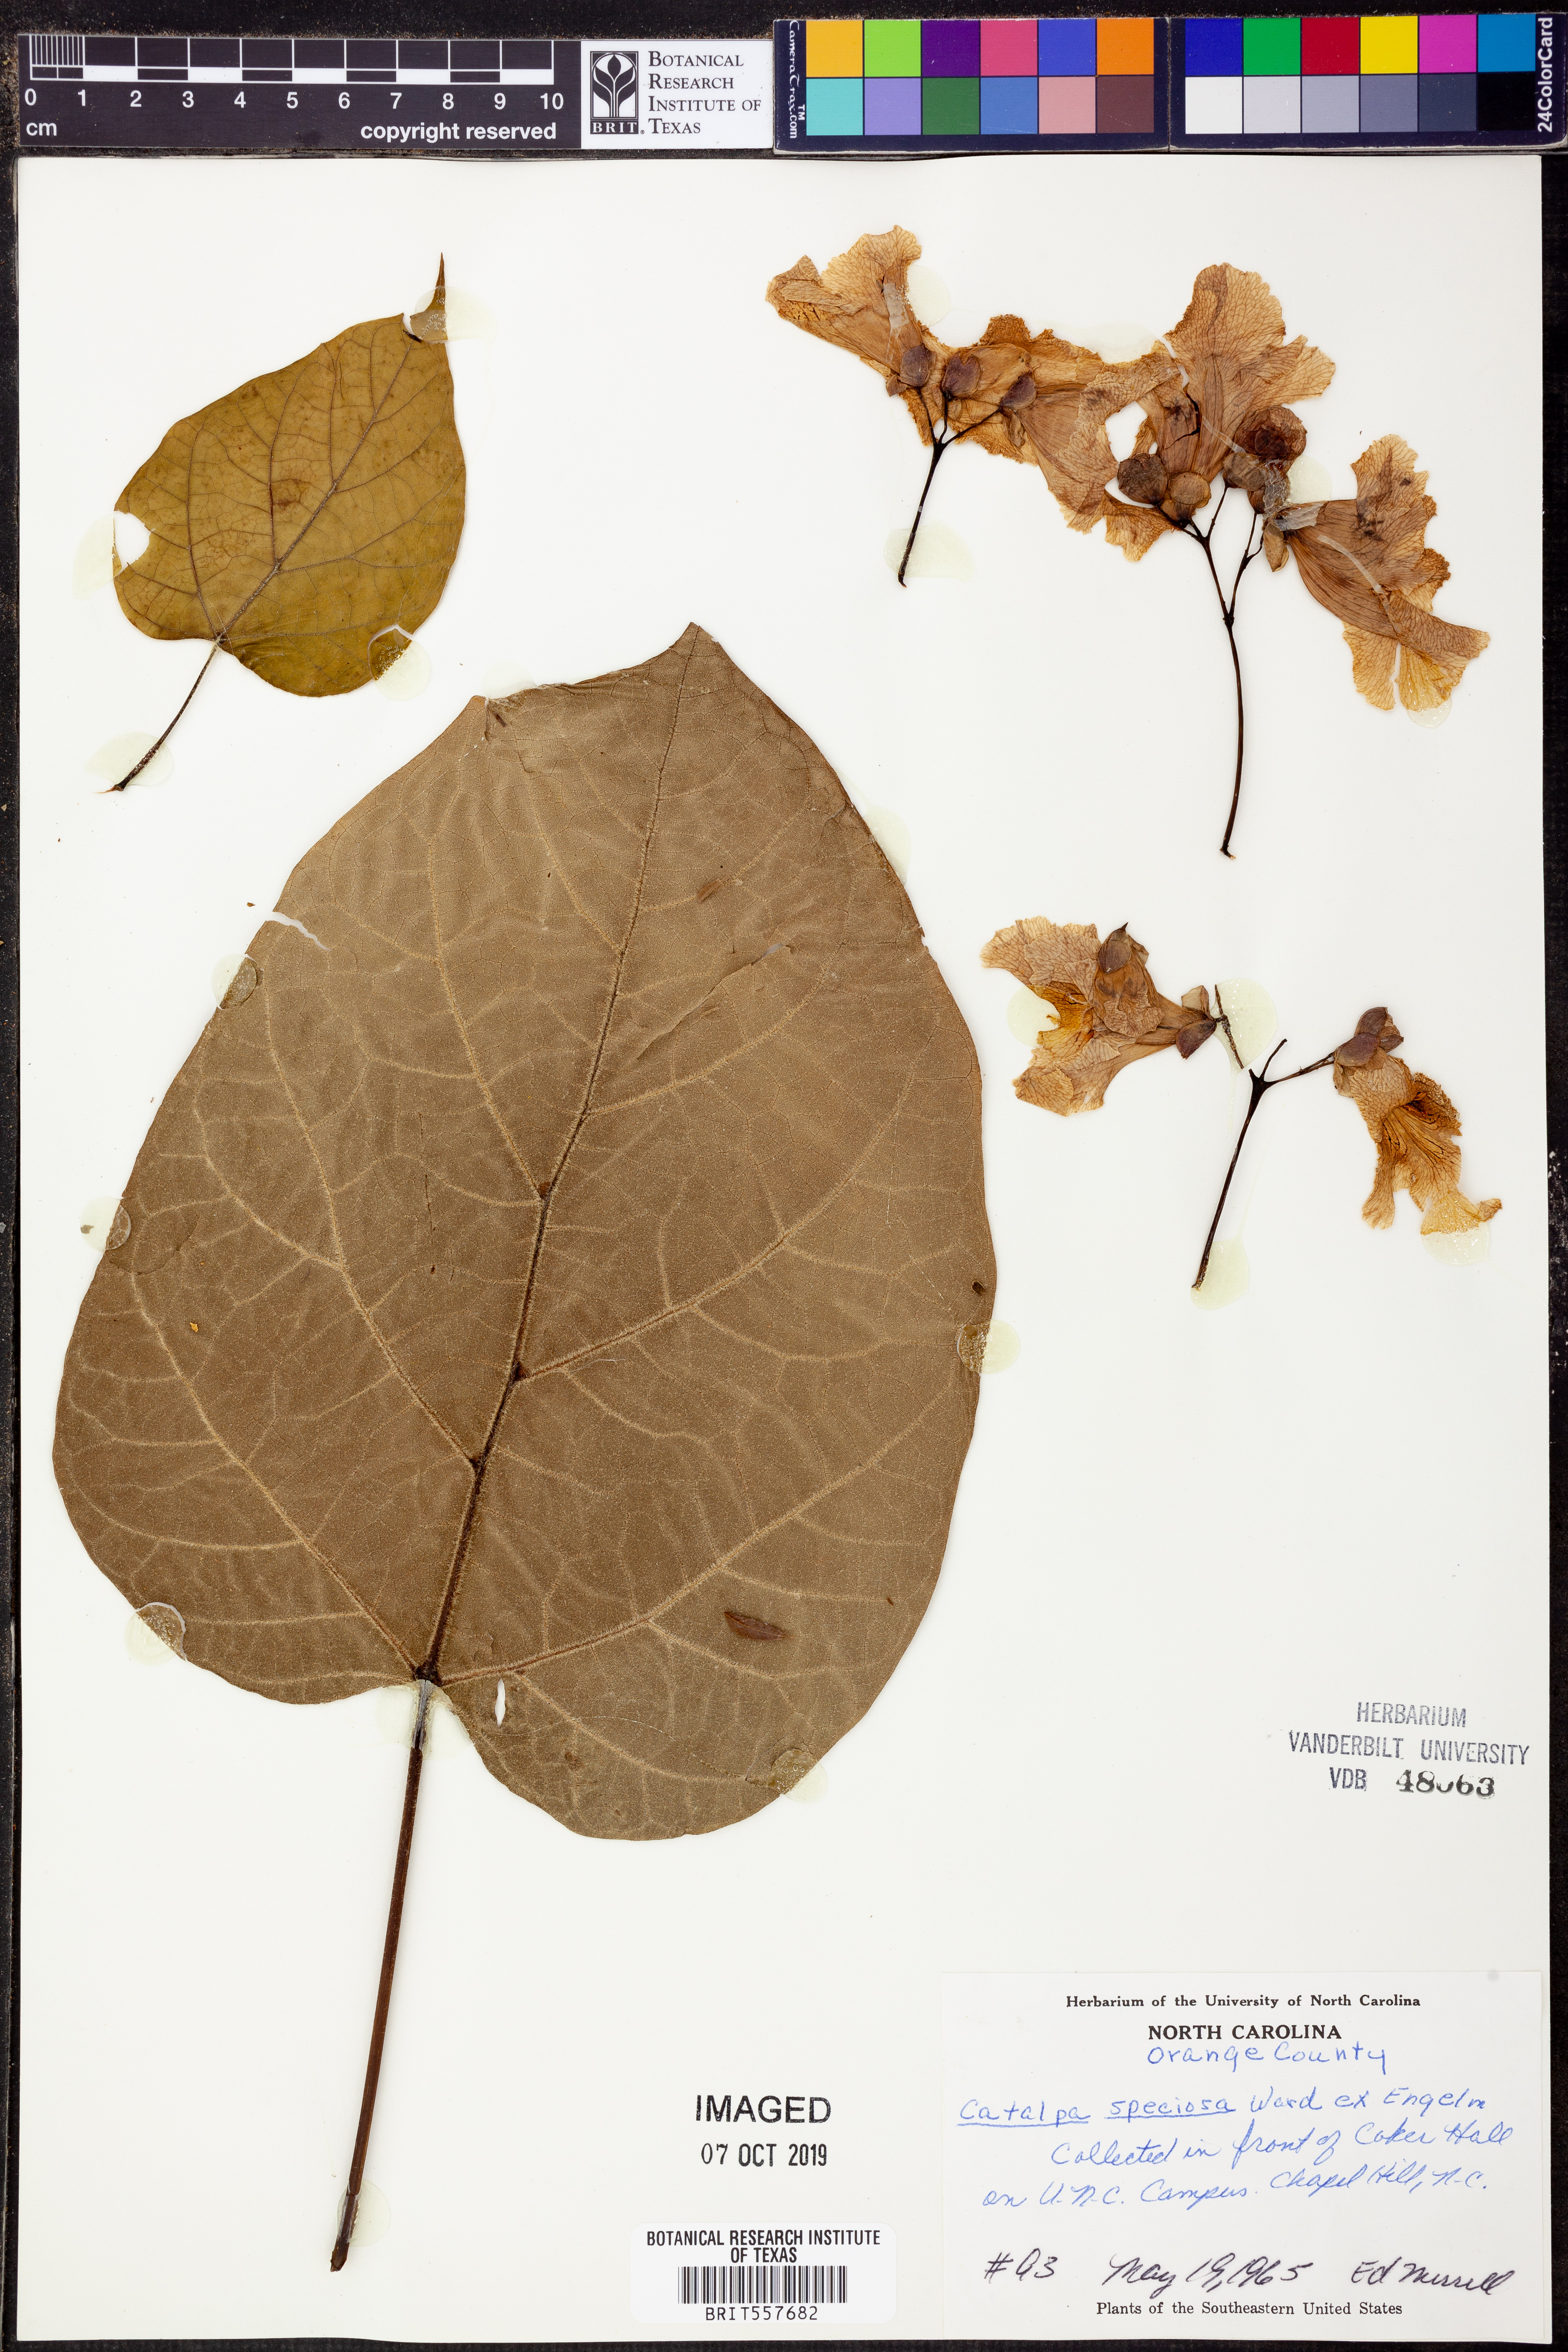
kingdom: Plantae
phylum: Tracheophyta
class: Magnoliopsida
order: Lamiales
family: Bignoniaceae
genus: Catalpa
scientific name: Catalpa speciosa
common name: Northern catalpa
